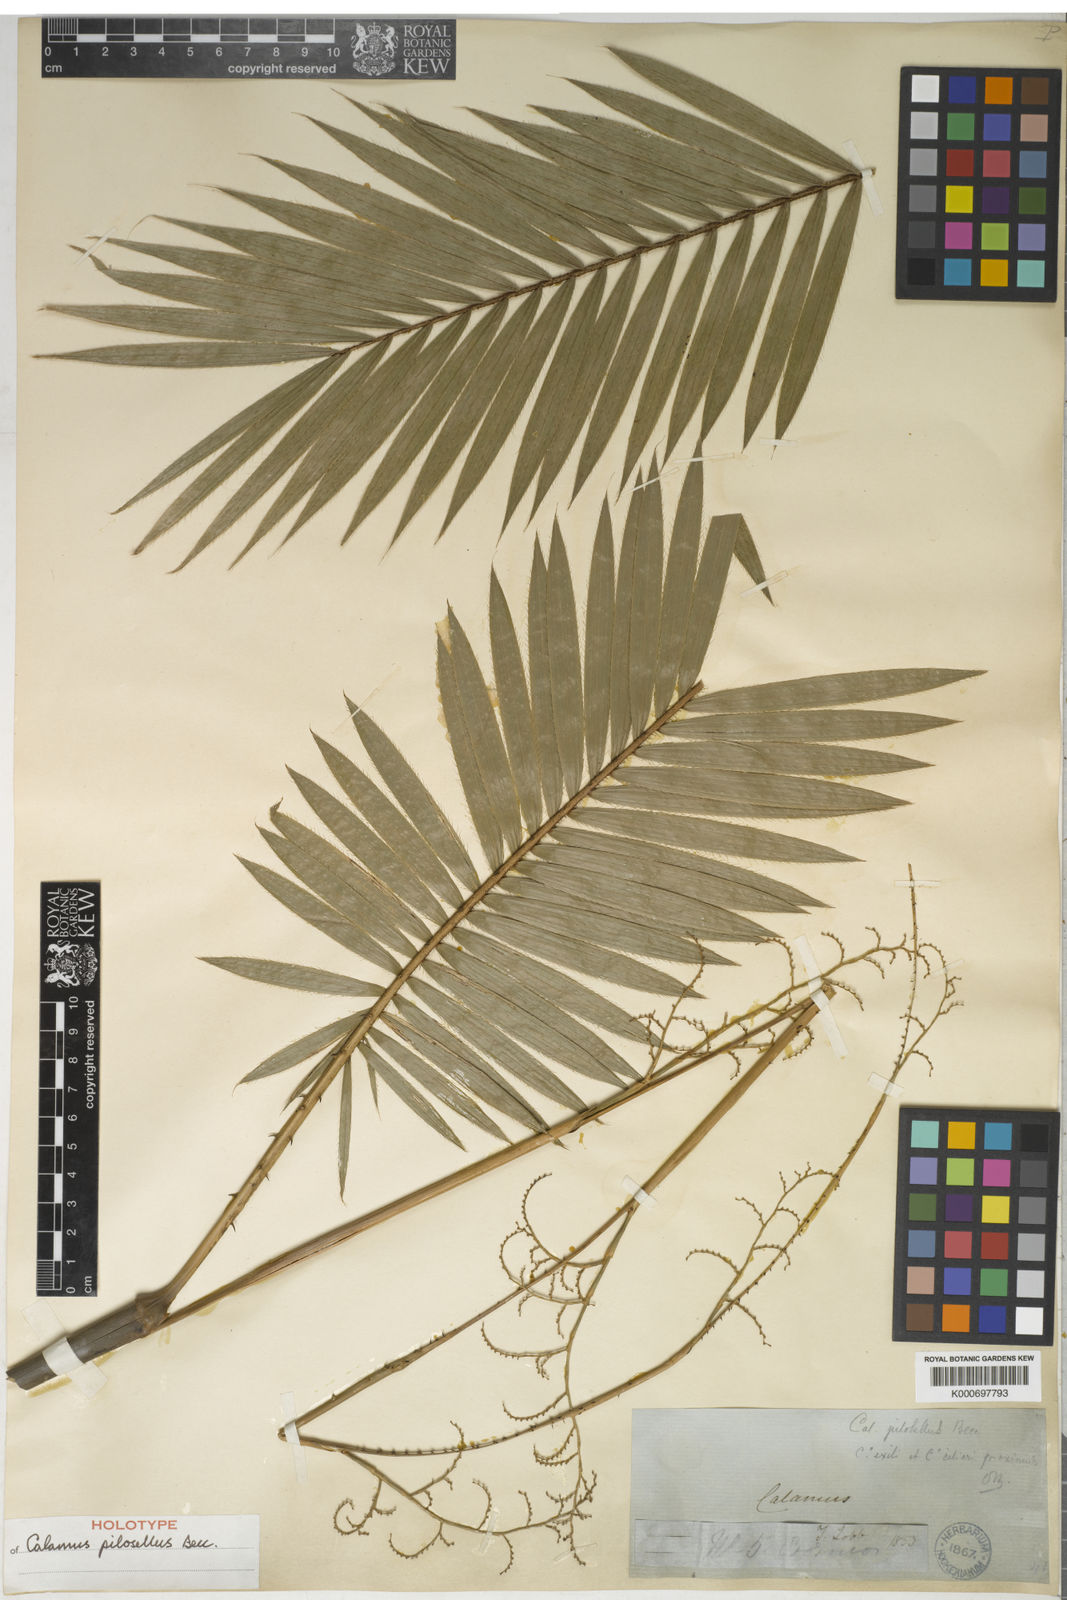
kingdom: Plantae
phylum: Tracheophyta
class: Liliopsida
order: Arecales
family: Arecaceae
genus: Calamus
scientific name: Calamus pilosellus
